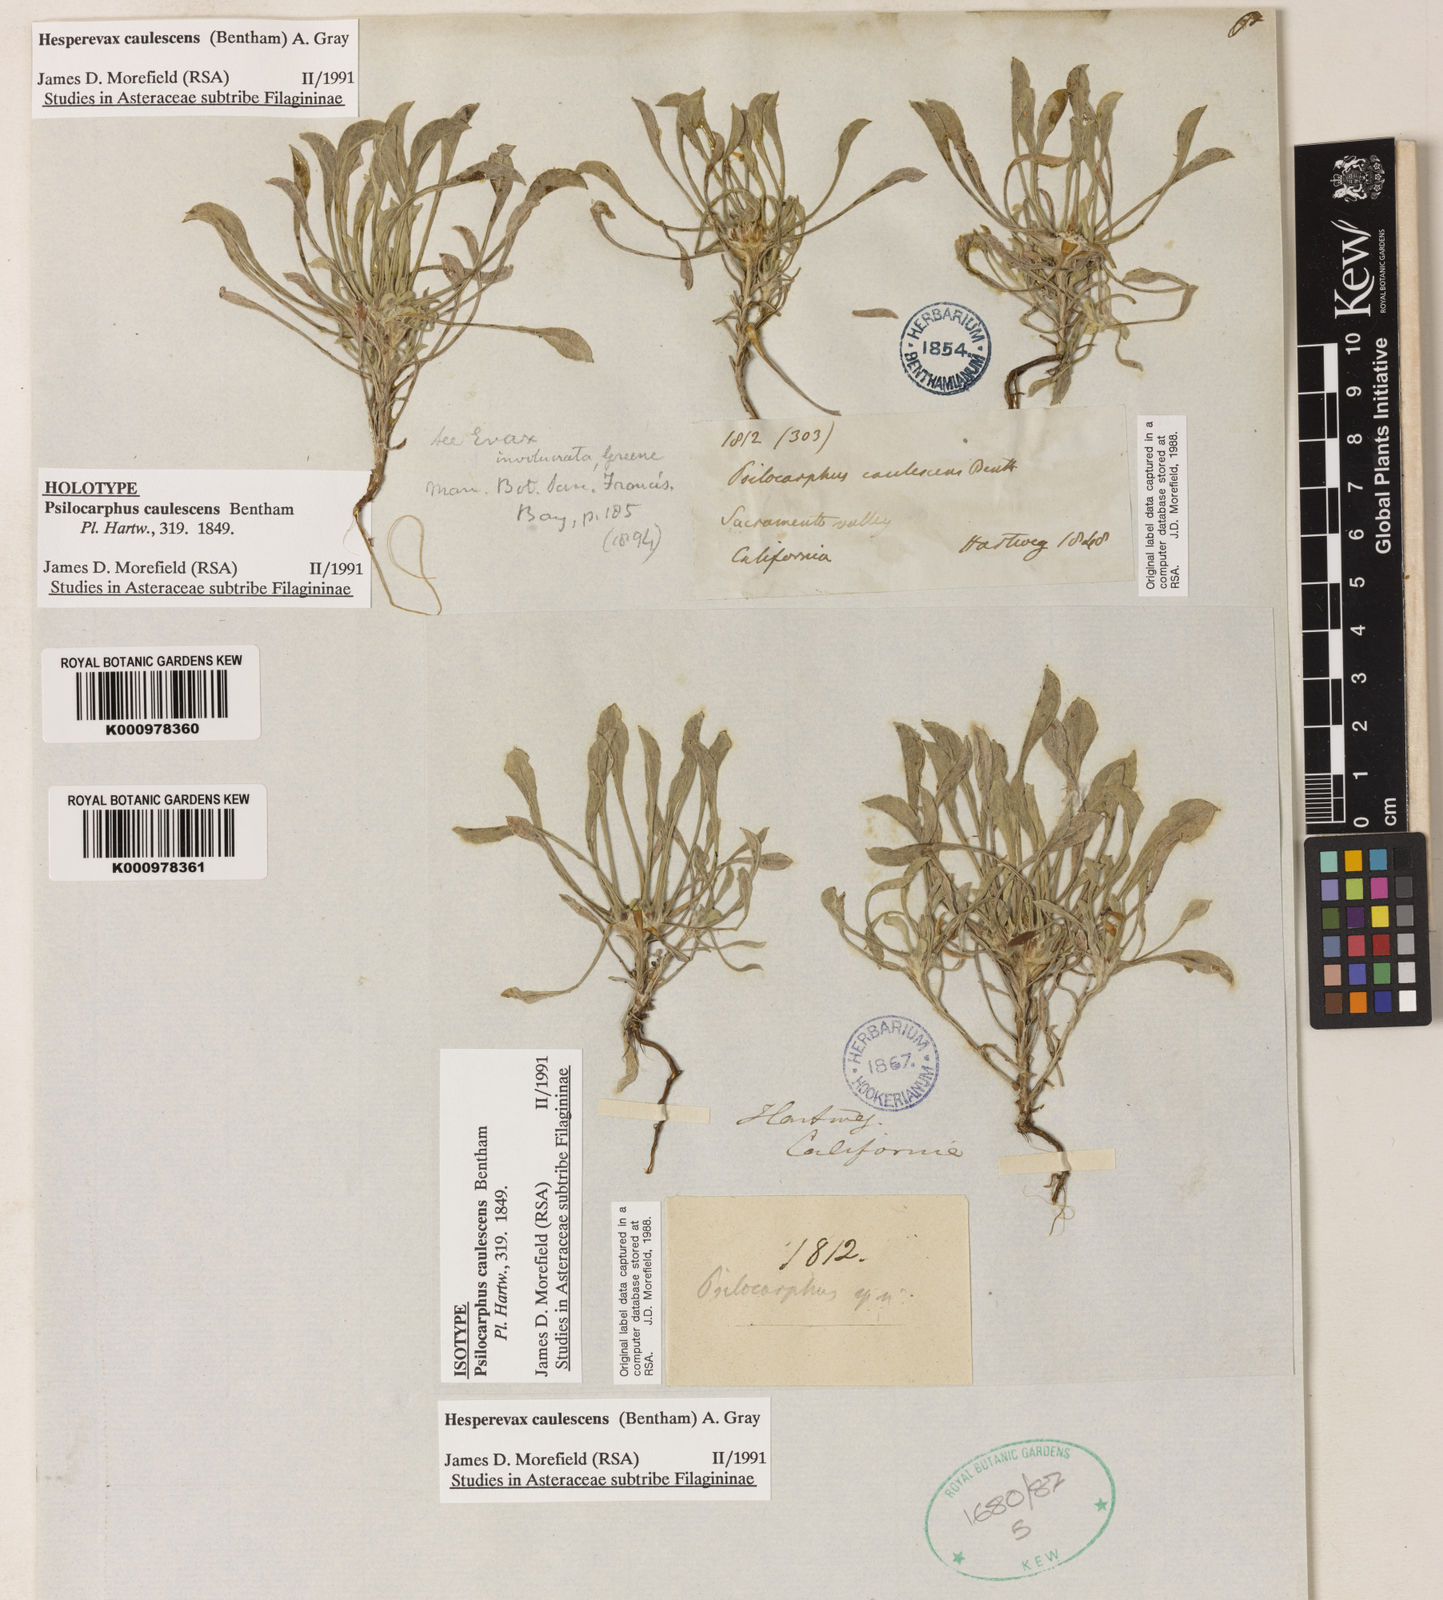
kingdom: Plantae
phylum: Tracheophyta
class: Magnoliopsida
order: Asterales
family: Asteraceae
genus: Hesperevax
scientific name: Hesperevax caulescens
